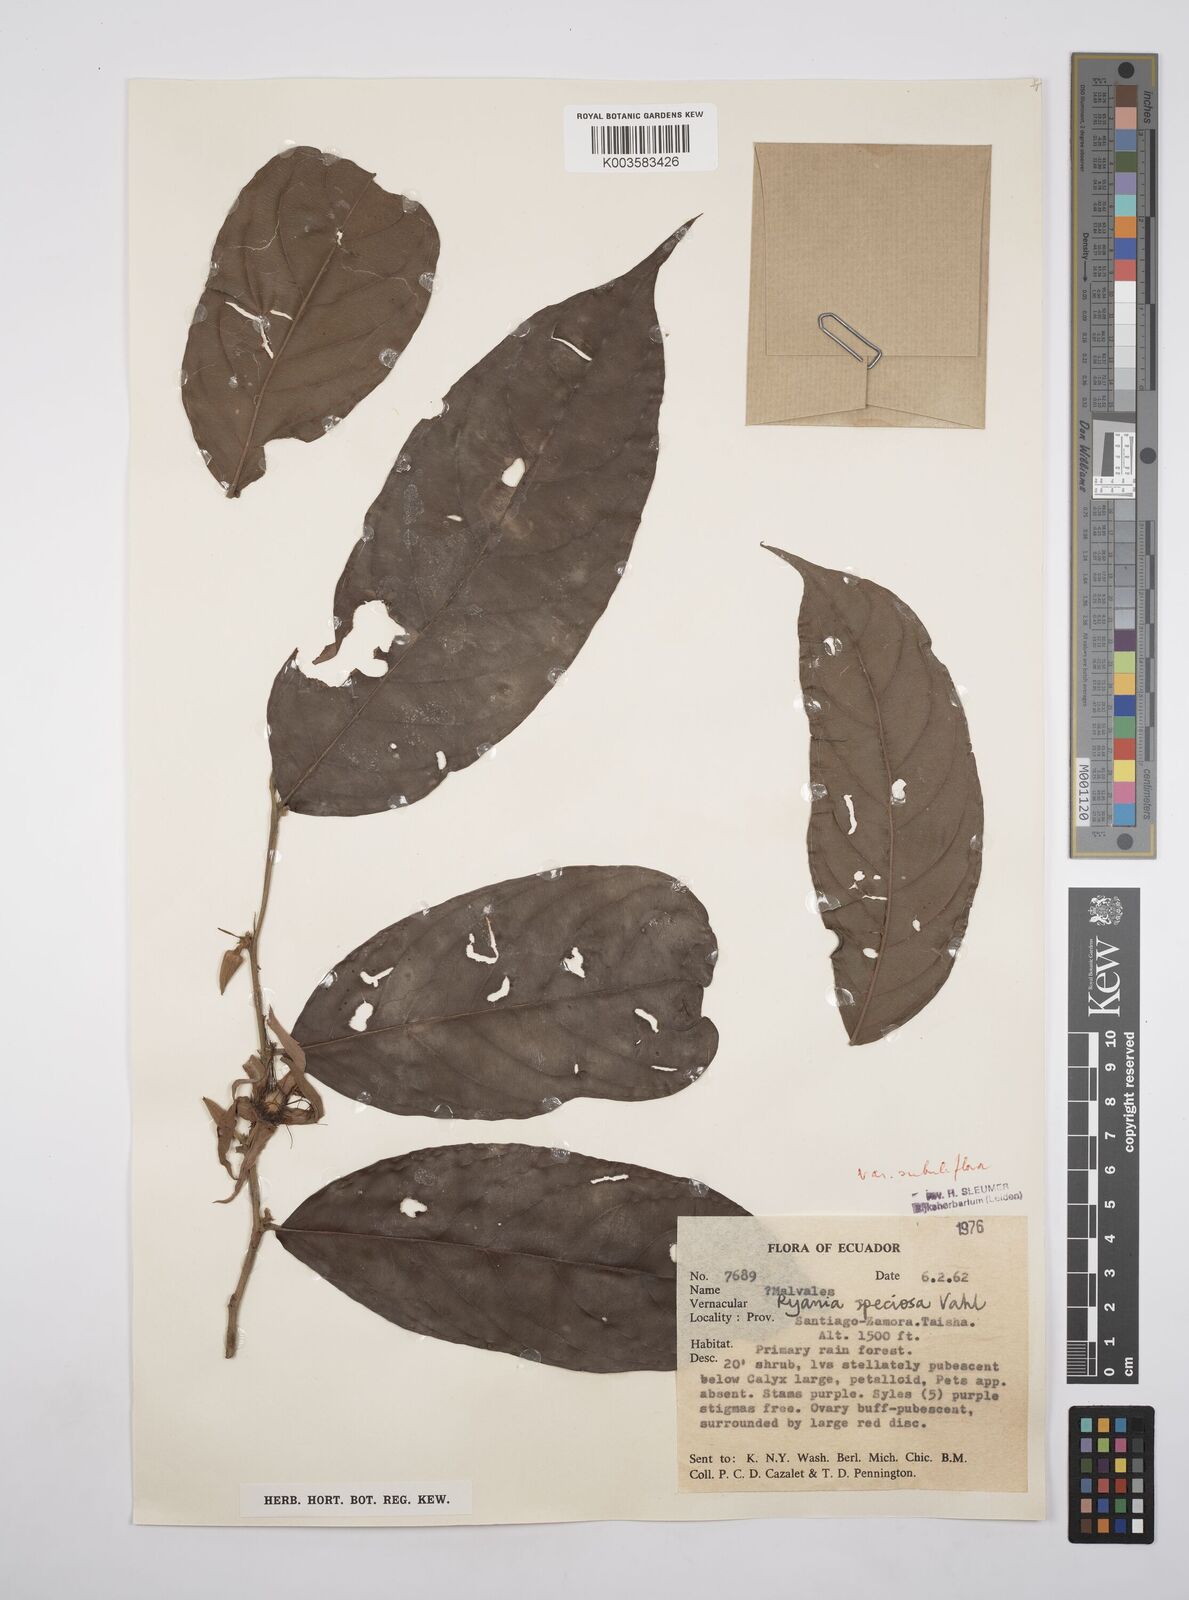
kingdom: Plantae
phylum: Tracheophyta
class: Magnoliopsida
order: Malpighiales
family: Salicaceae
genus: Ryania
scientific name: Ryania speciosa
